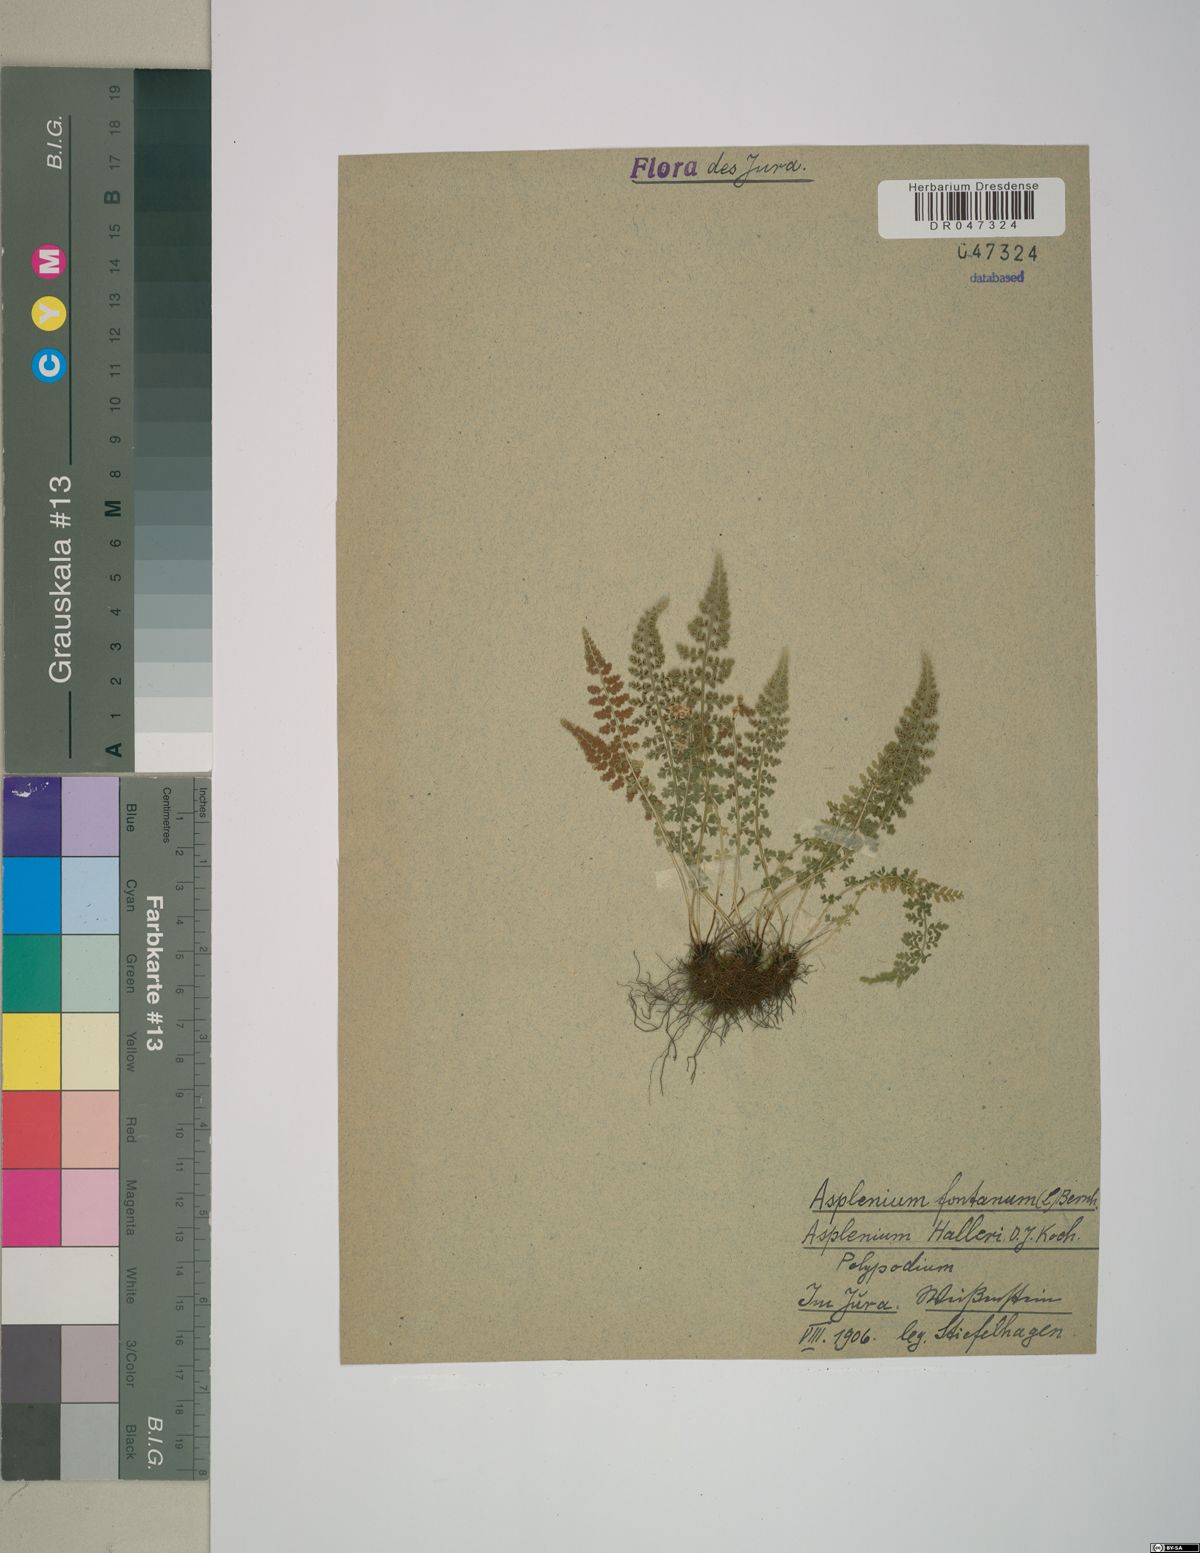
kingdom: Plantae
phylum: Tracheophyta
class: Polypodiopsida
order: Polypodiales
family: Aspleniaceae
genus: Asplenium
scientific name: Asplenium fontanum
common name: Fountain spleenwort
